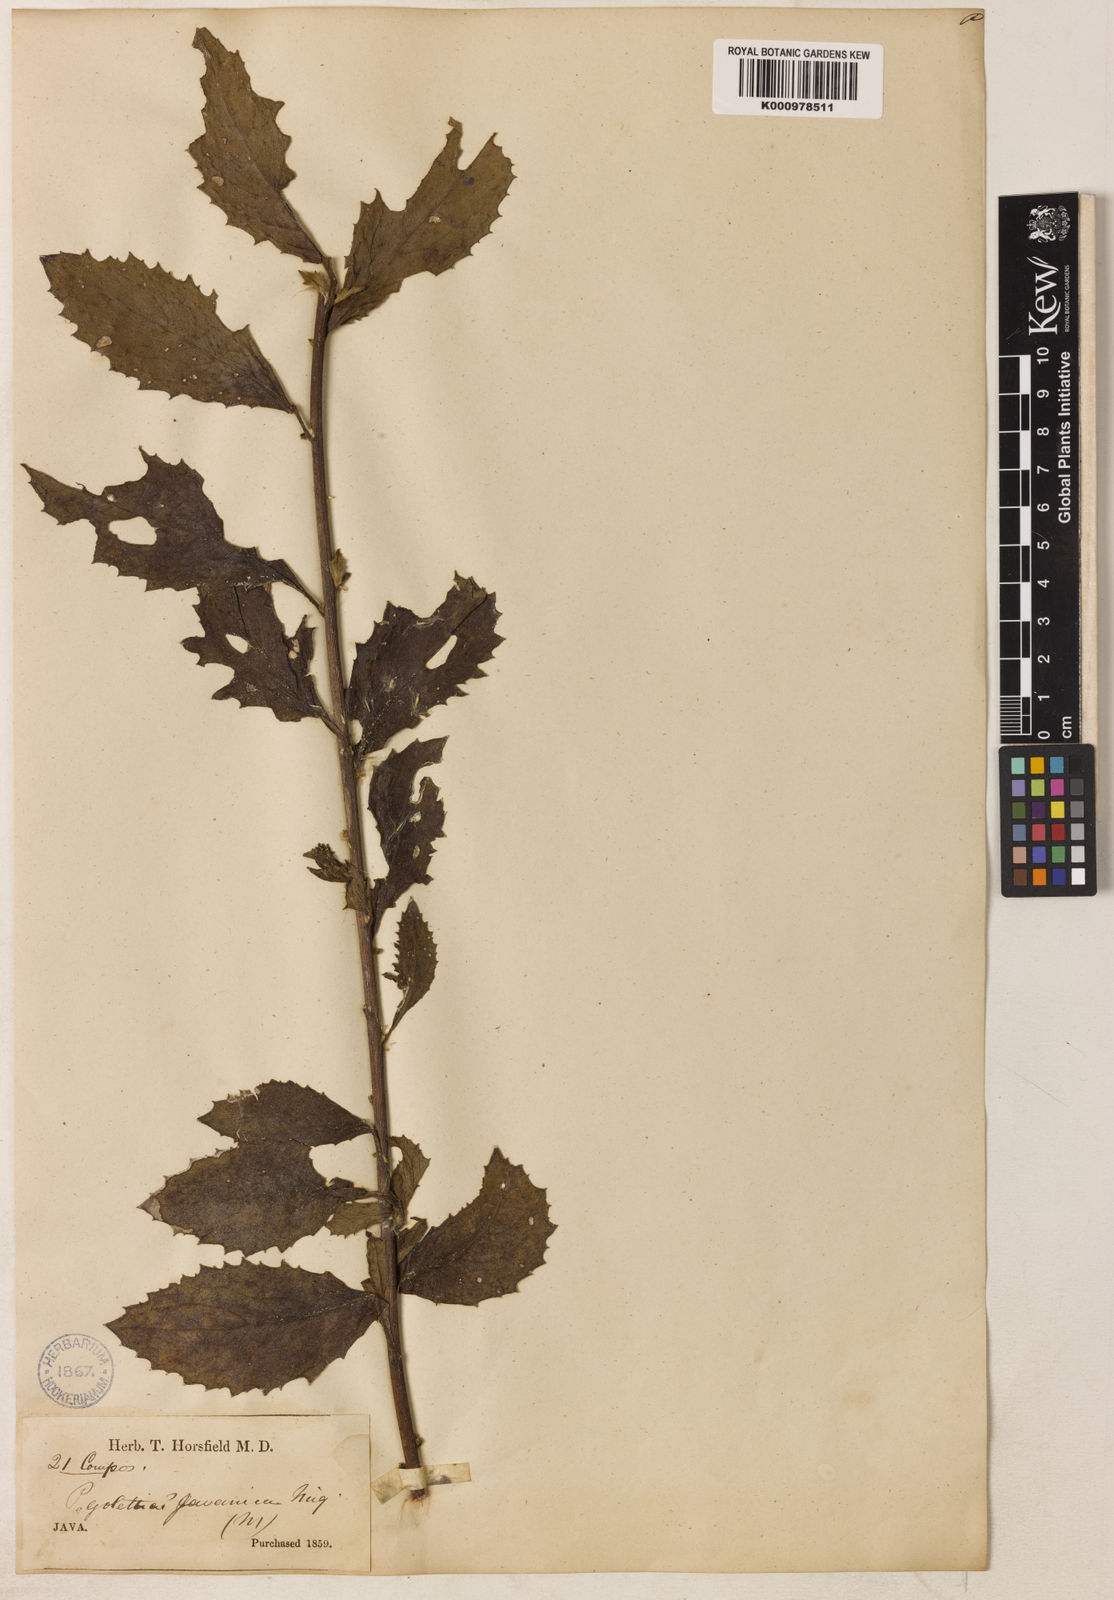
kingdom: Plantae
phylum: Tracheophyta
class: Magnoliopsida
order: Asterales
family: Asteraceae
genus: Blumea
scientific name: Blumea lacera
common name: Malay blumea
